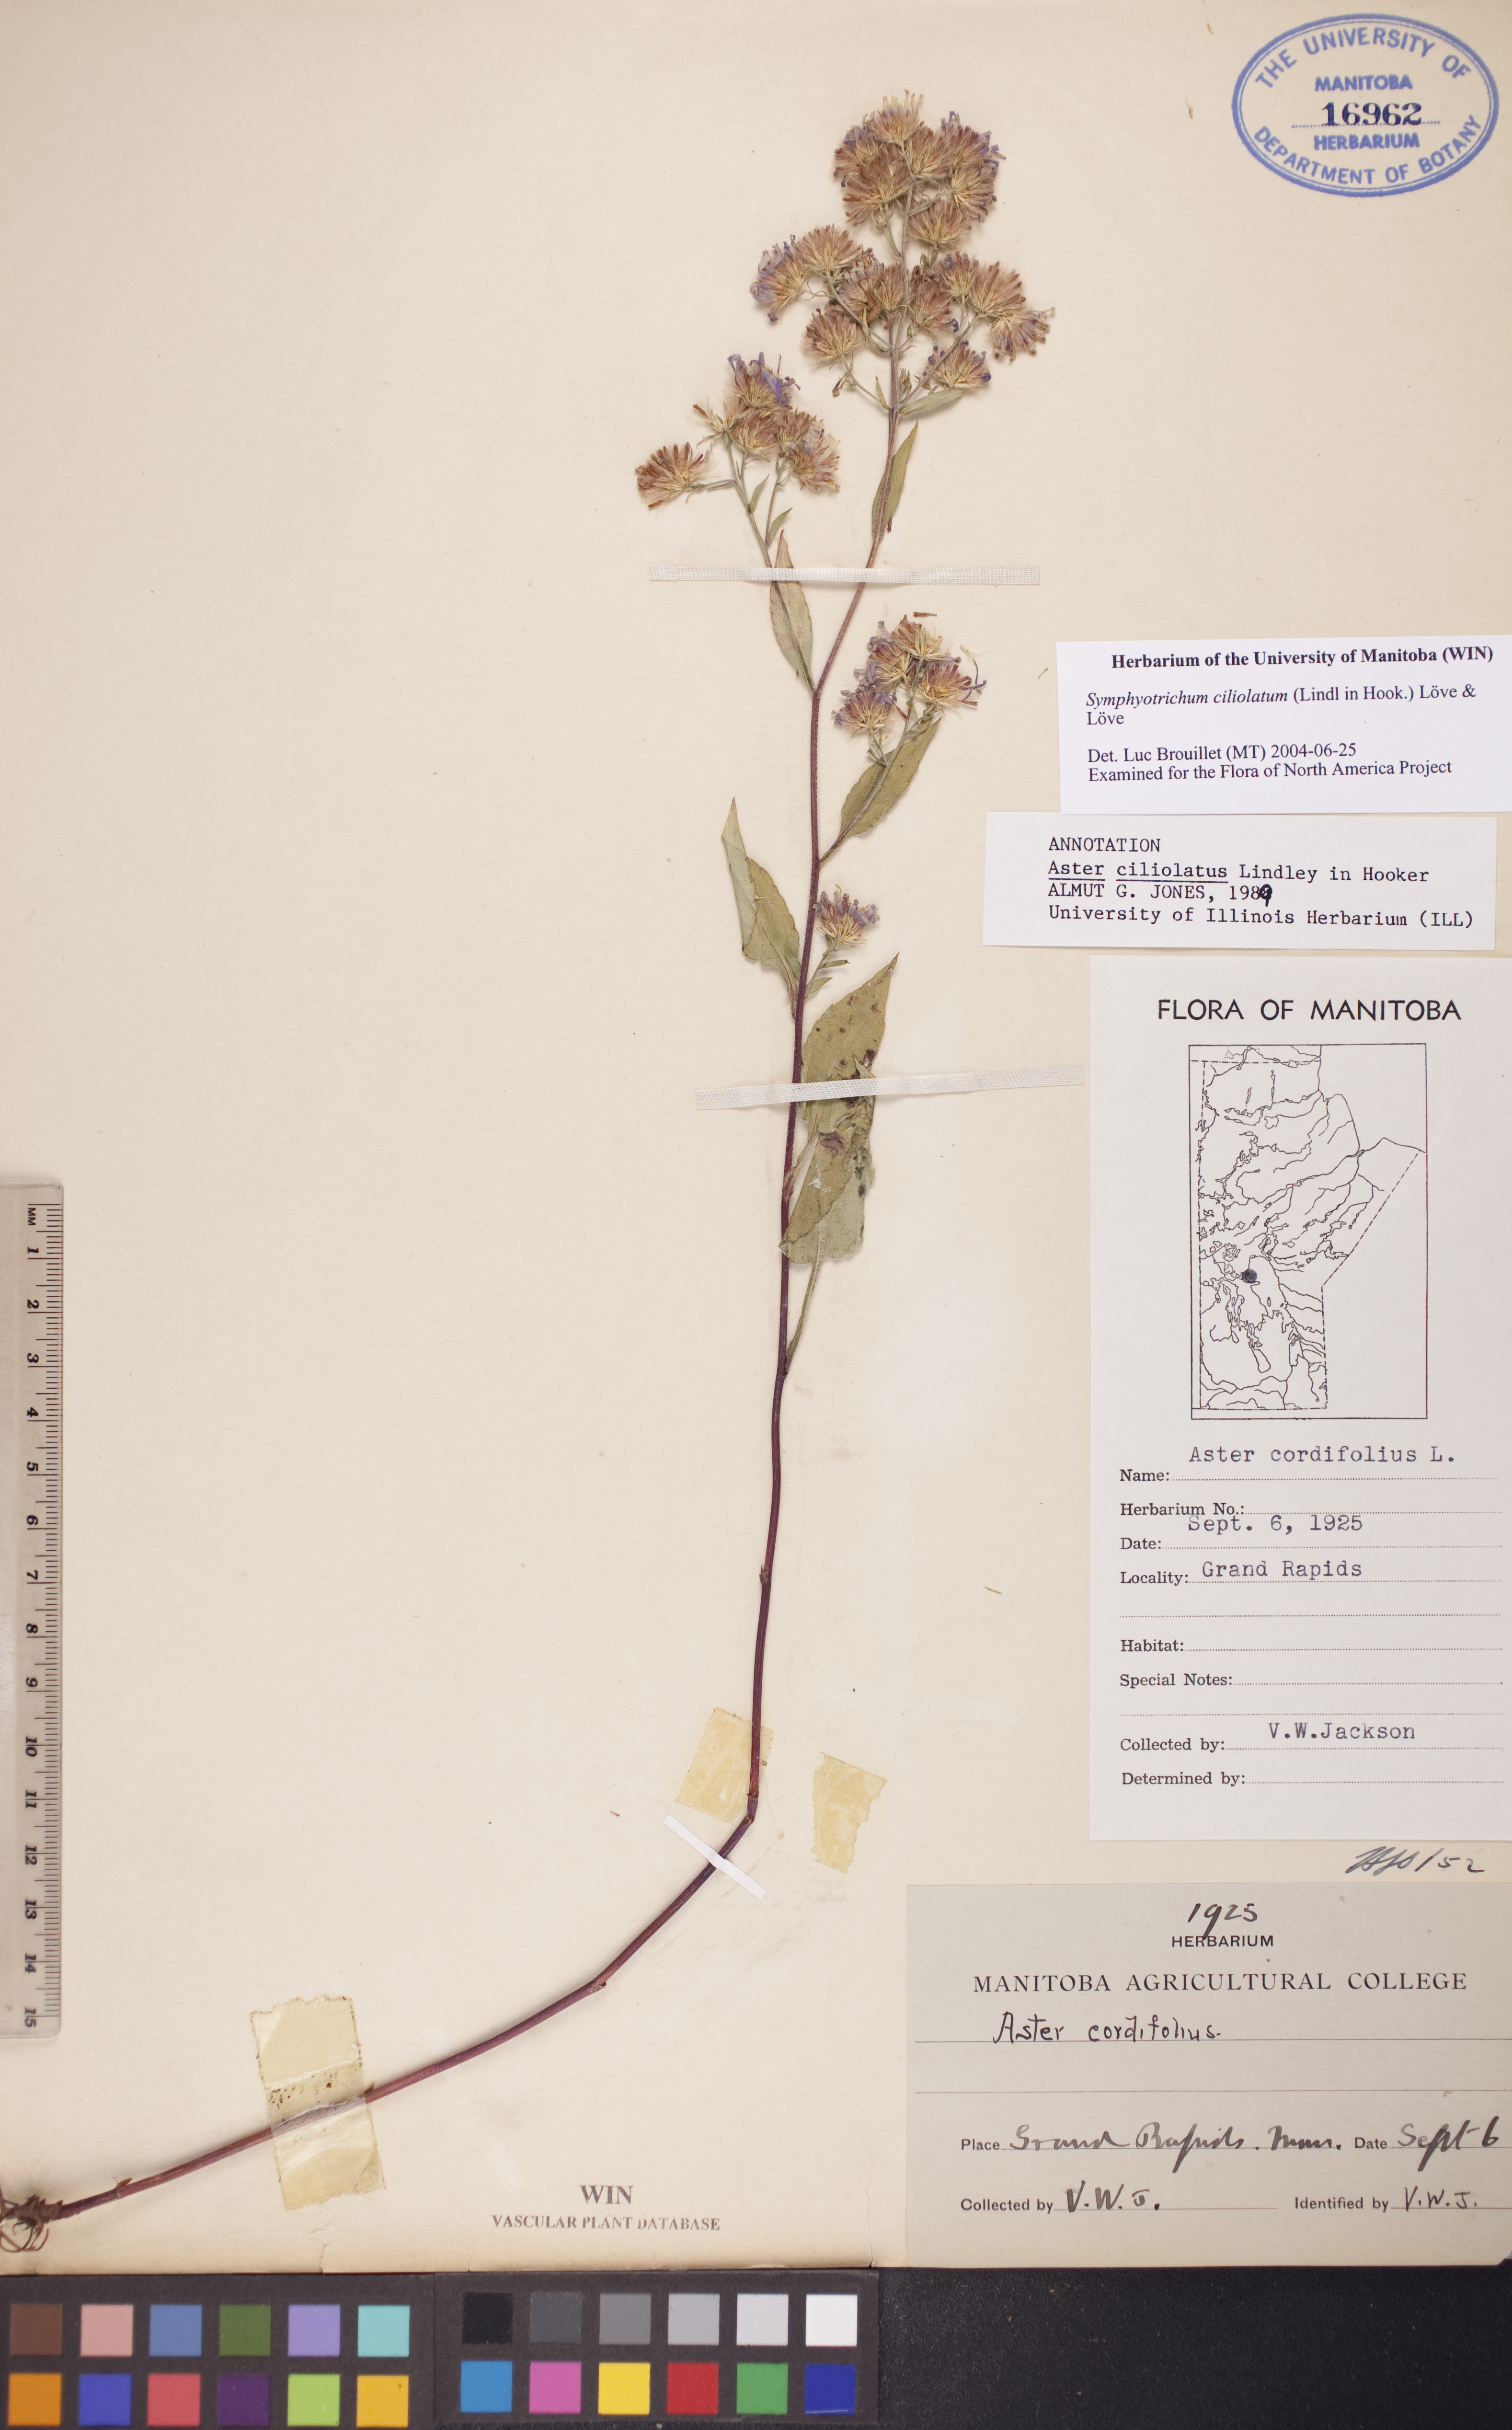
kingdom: Plantae
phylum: Tracheophyta
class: Magnoliopsida
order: Asterales
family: Asteraceae
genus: Symphyotrichum
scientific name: Symphyotrichum ciliolatum
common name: Fringed blue aster
